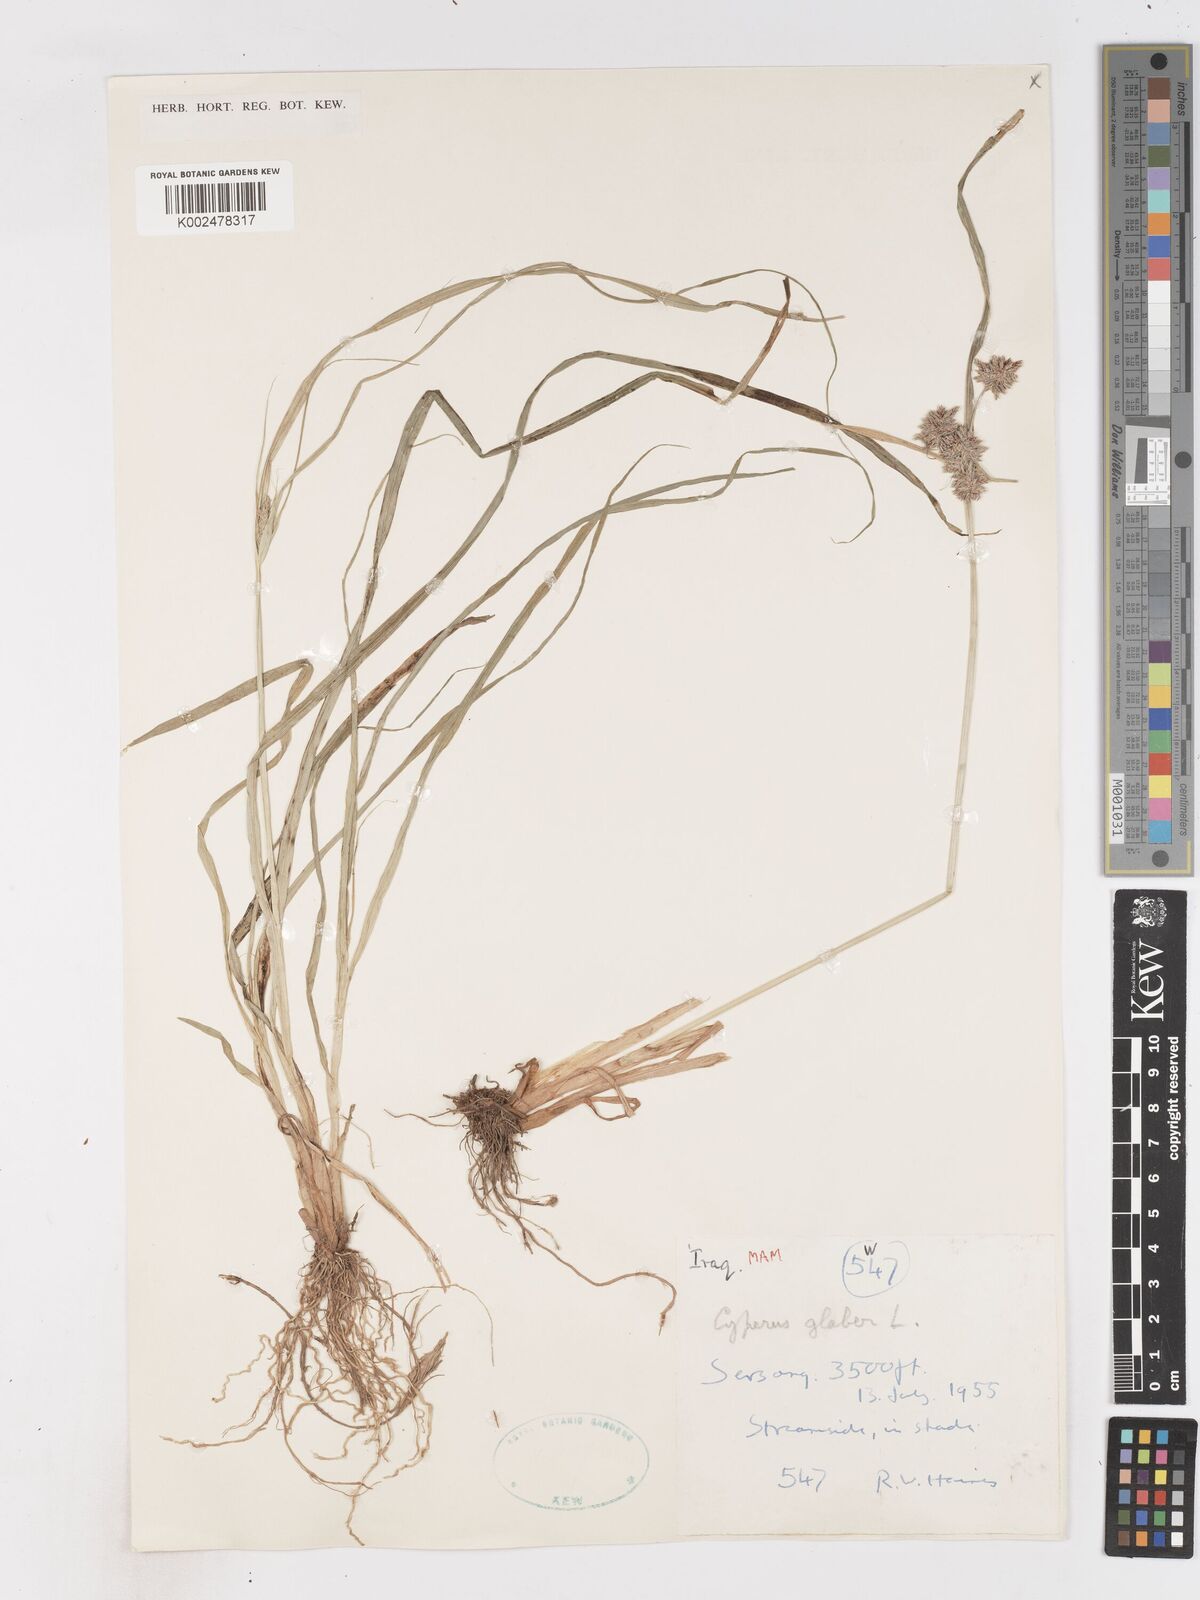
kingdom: Plantae
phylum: Tracheophyta
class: Liliopsida
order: Poales
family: Cyperaceae
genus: Cyperus
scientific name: Cyperus glaber
